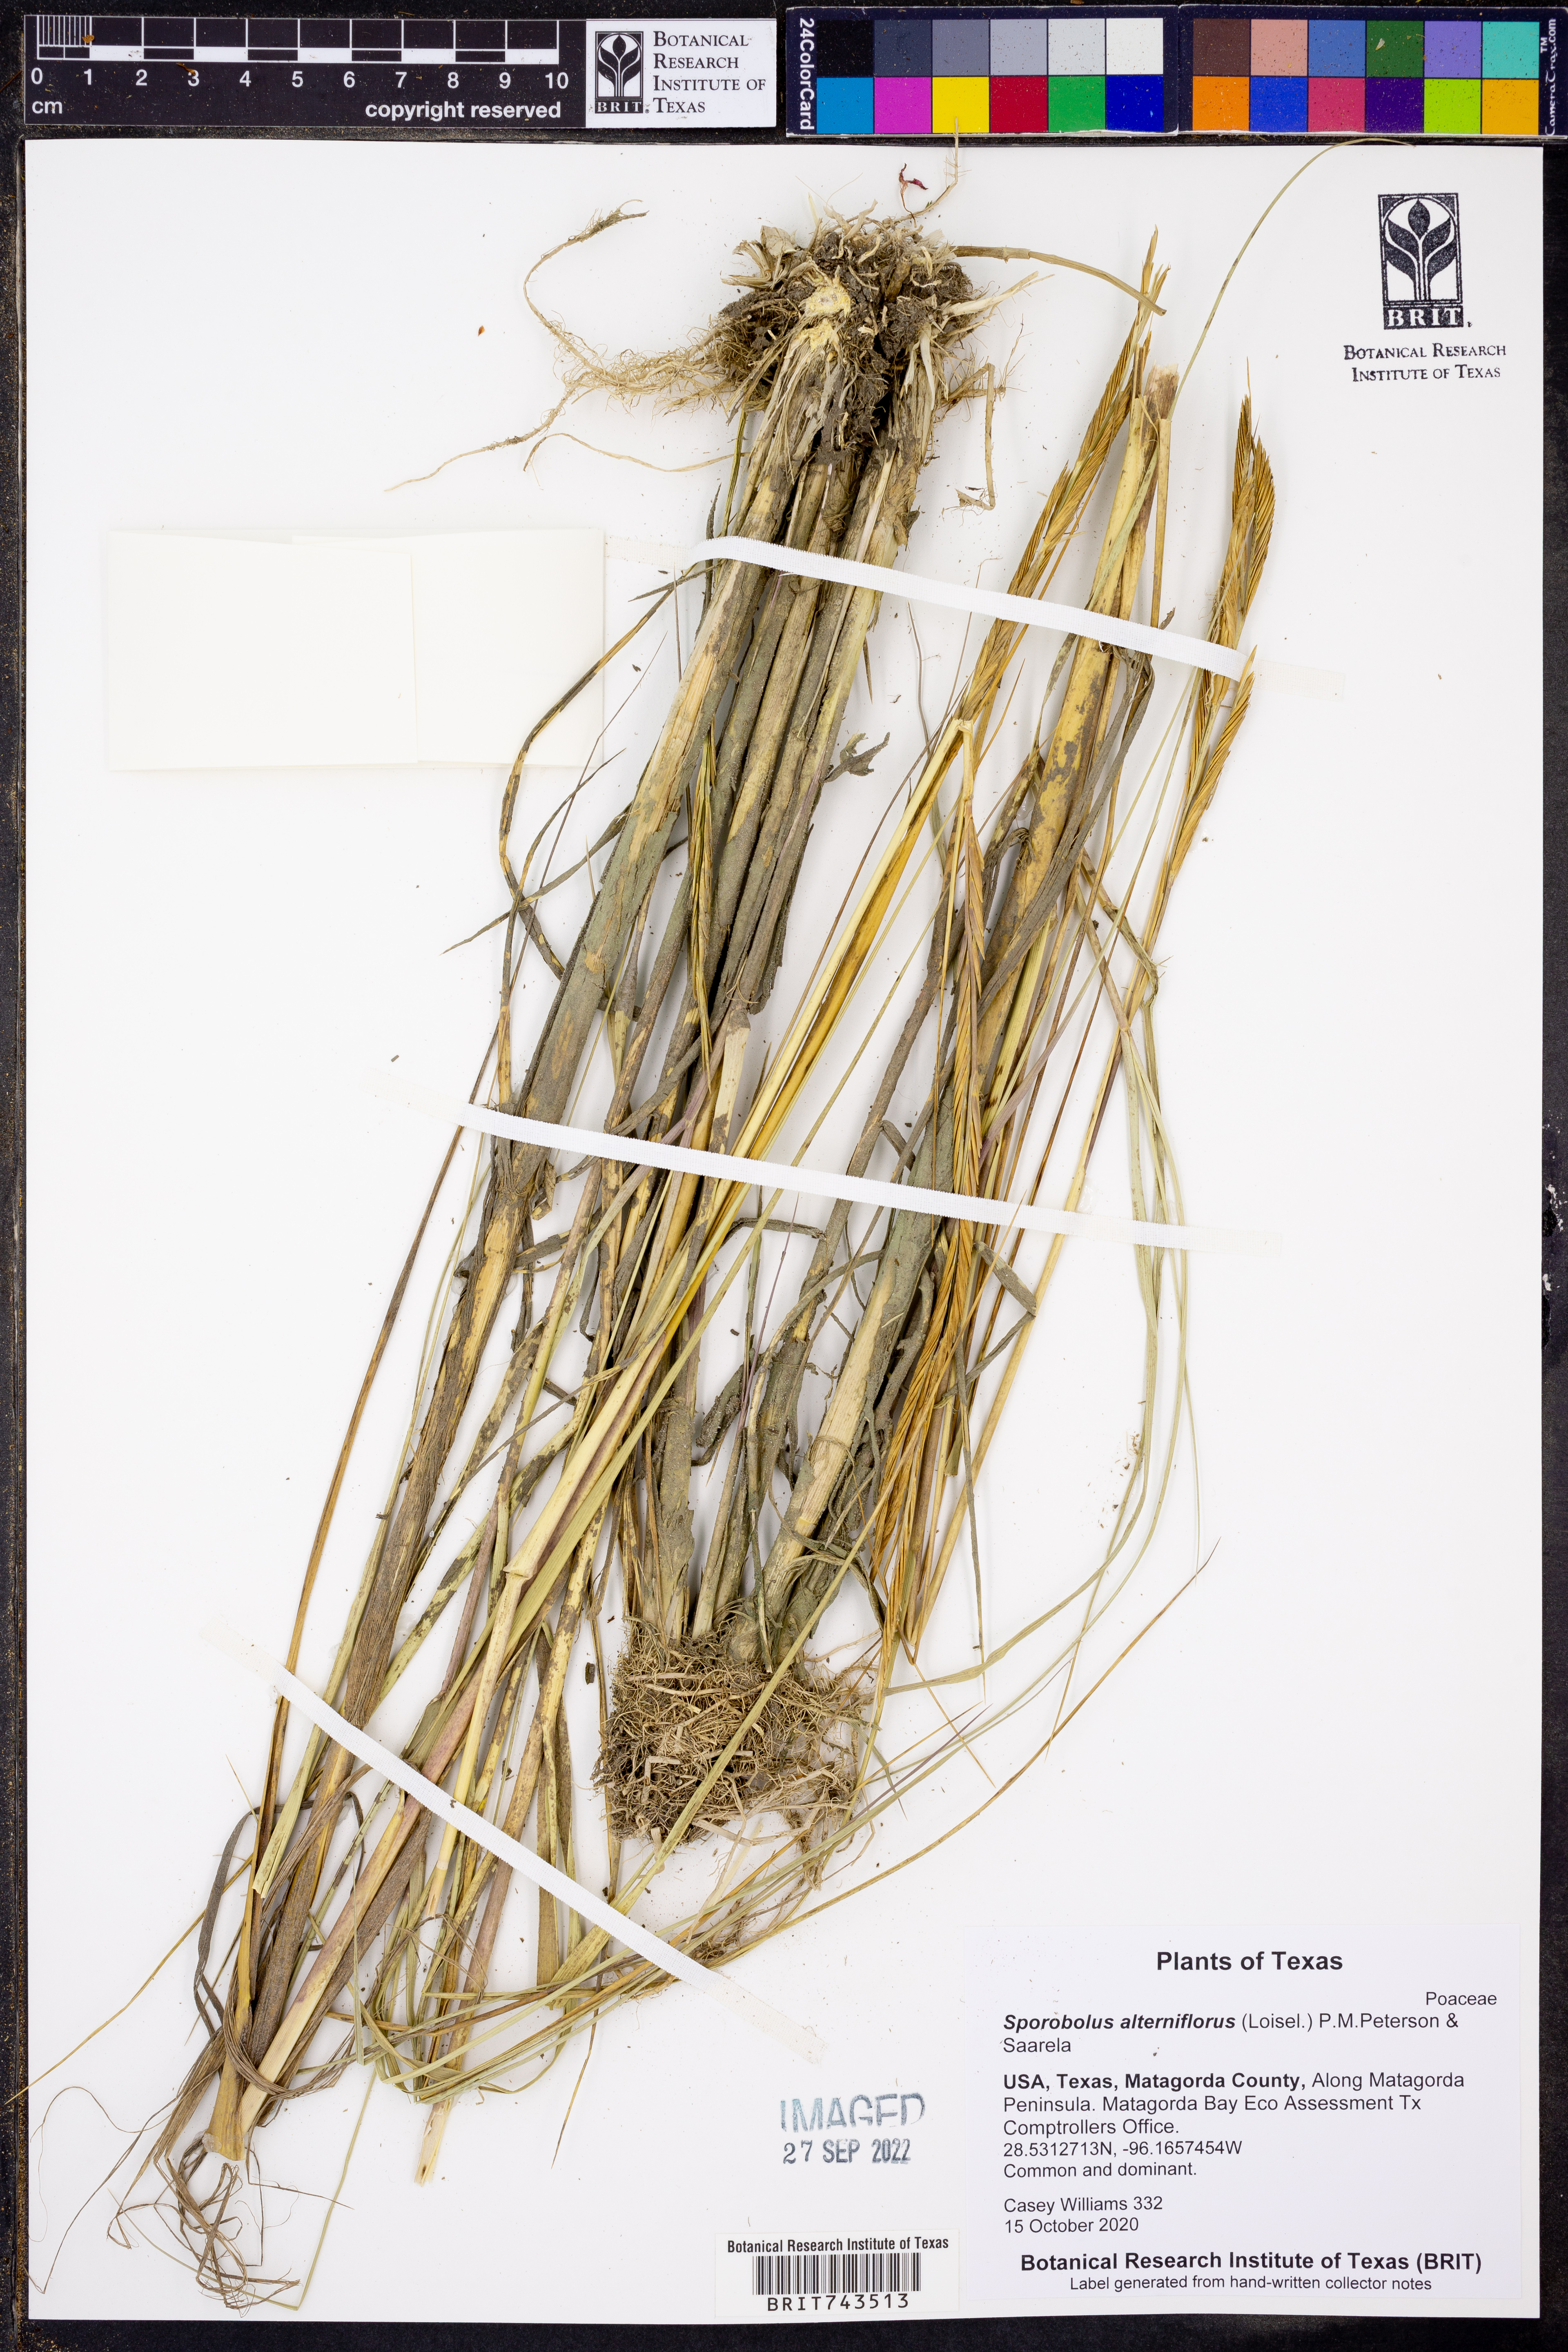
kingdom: Plantae
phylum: Tracheophyta
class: Liliopsida
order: Poales
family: Poaceae
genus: Sporobolus
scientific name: Sporobolus alterniflorus
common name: Atlantic cordgrass
